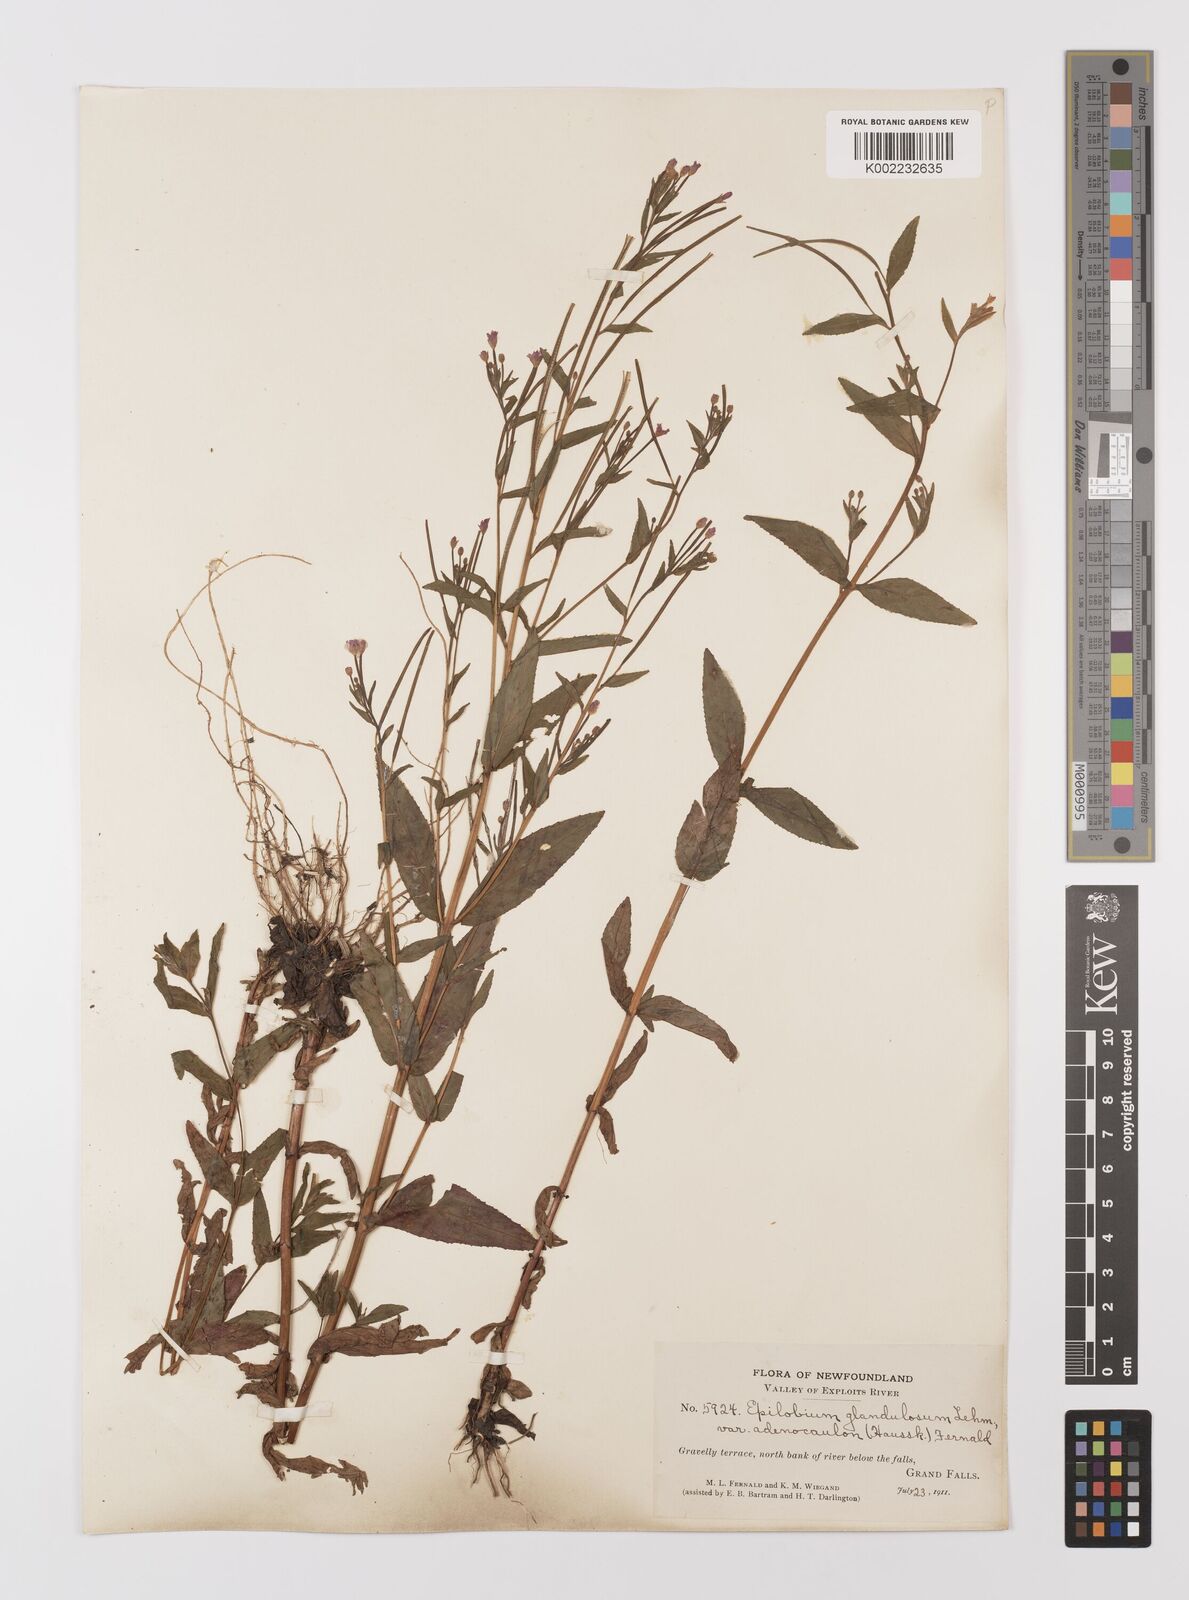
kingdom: Plantae
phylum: Tracheophyta
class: Magnoliopsida
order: Myrtales
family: Onagraceae
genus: Epilobium
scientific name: Epilobium ciliatum
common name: American willowherb
